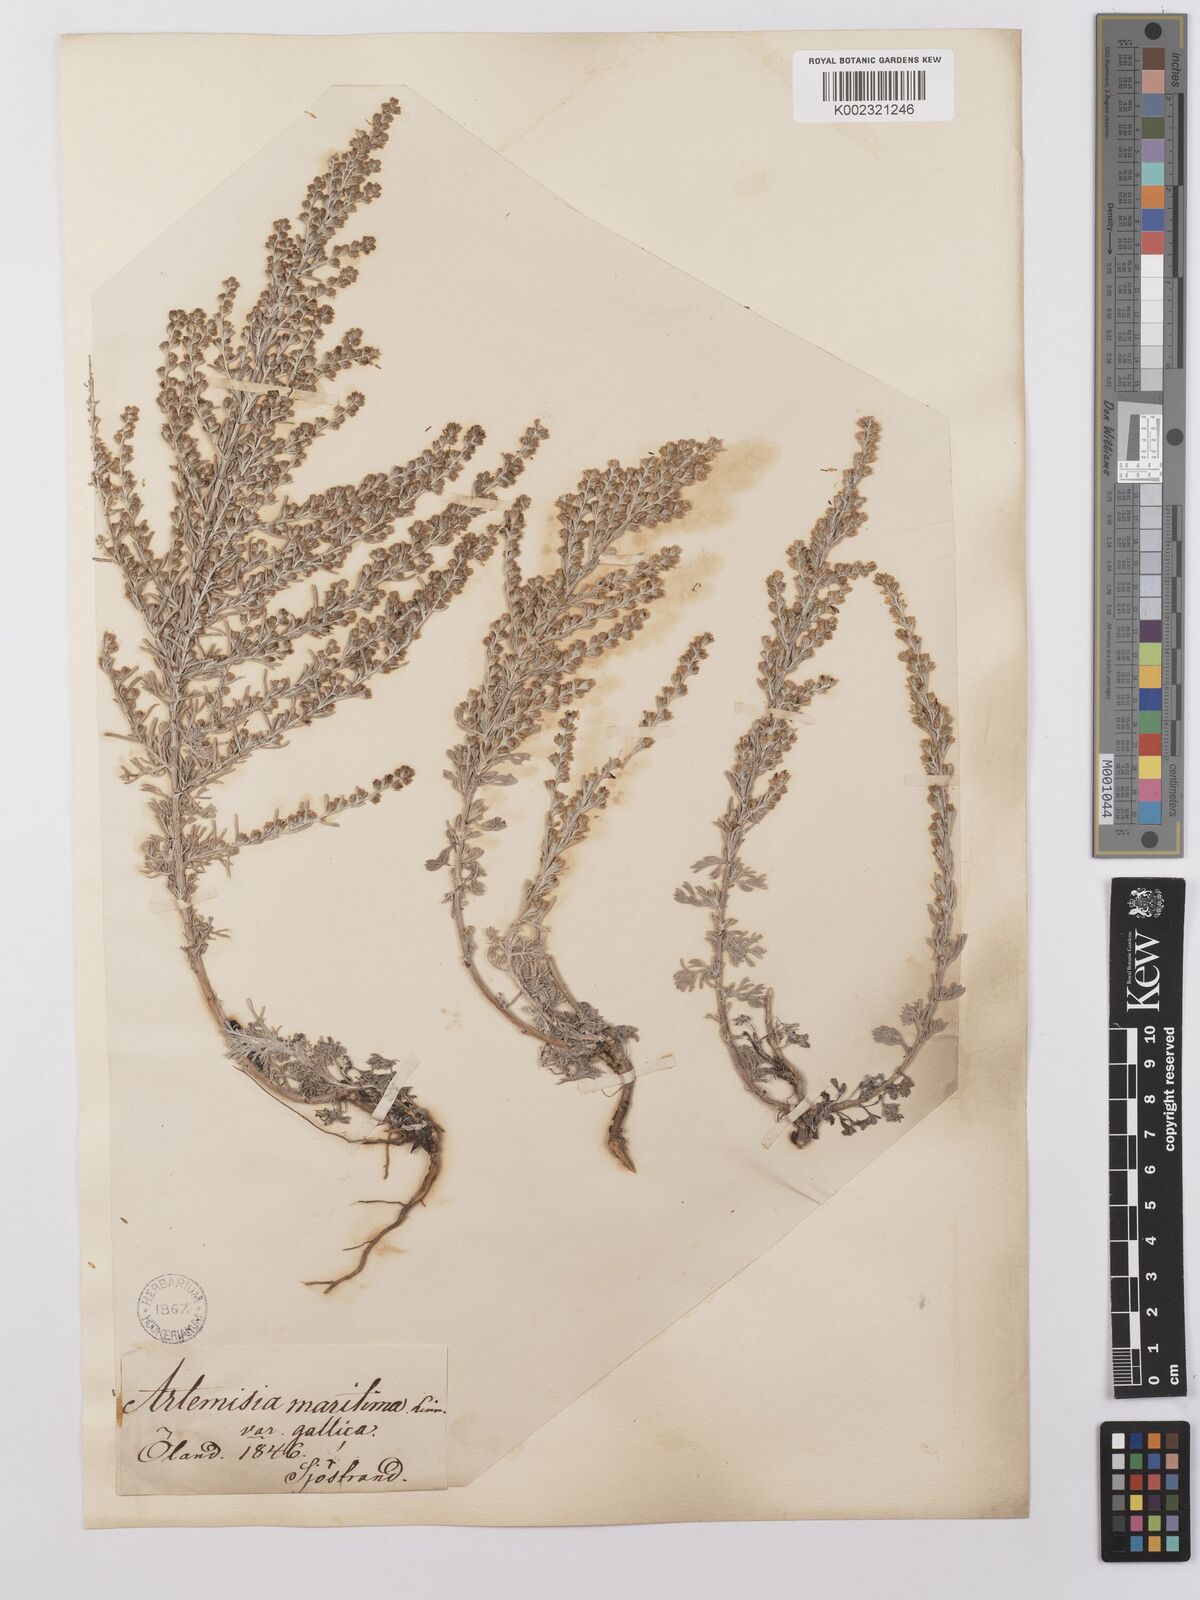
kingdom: Plantae
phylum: Tracheophyta
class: Magnoliopsida
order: Asterales
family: Asteraceae
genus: Artemisia
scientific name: Artemisia maritima
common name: Wormseed
